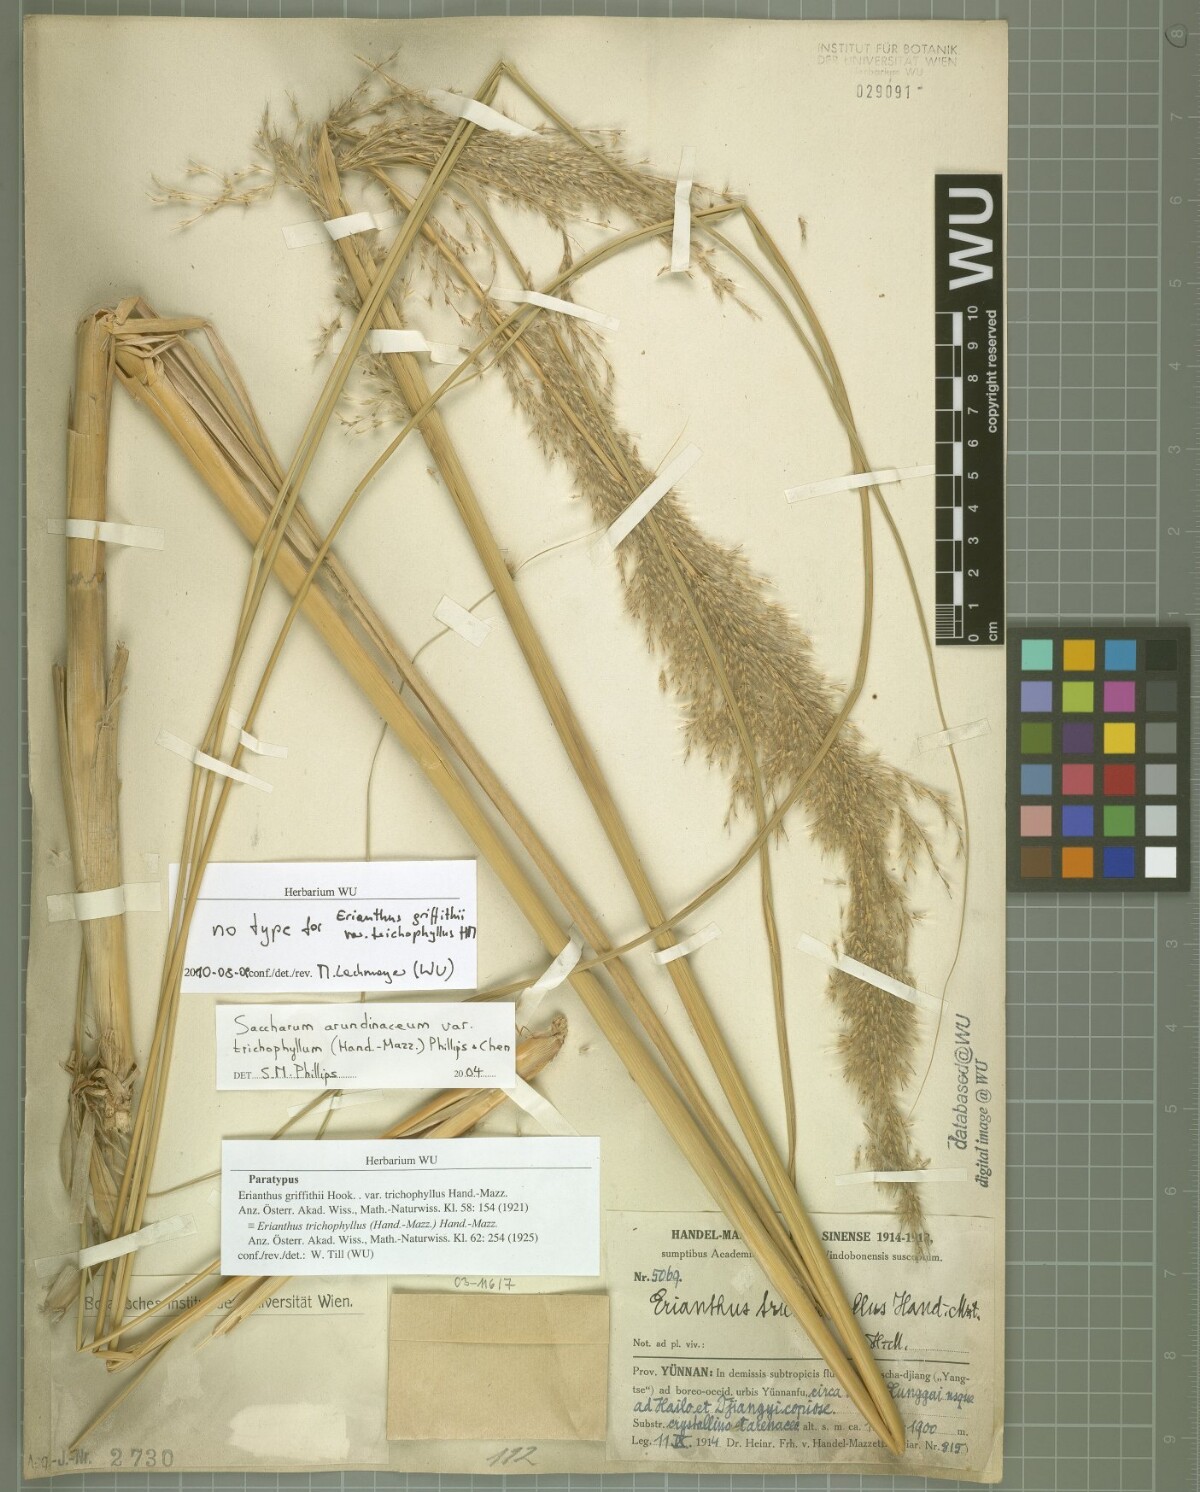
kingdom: Plantae
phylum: Tracheophyta
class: Liliopsida
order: Poales
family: Poaceae
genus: Tripidium
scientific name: Tripidium arundinaceum
